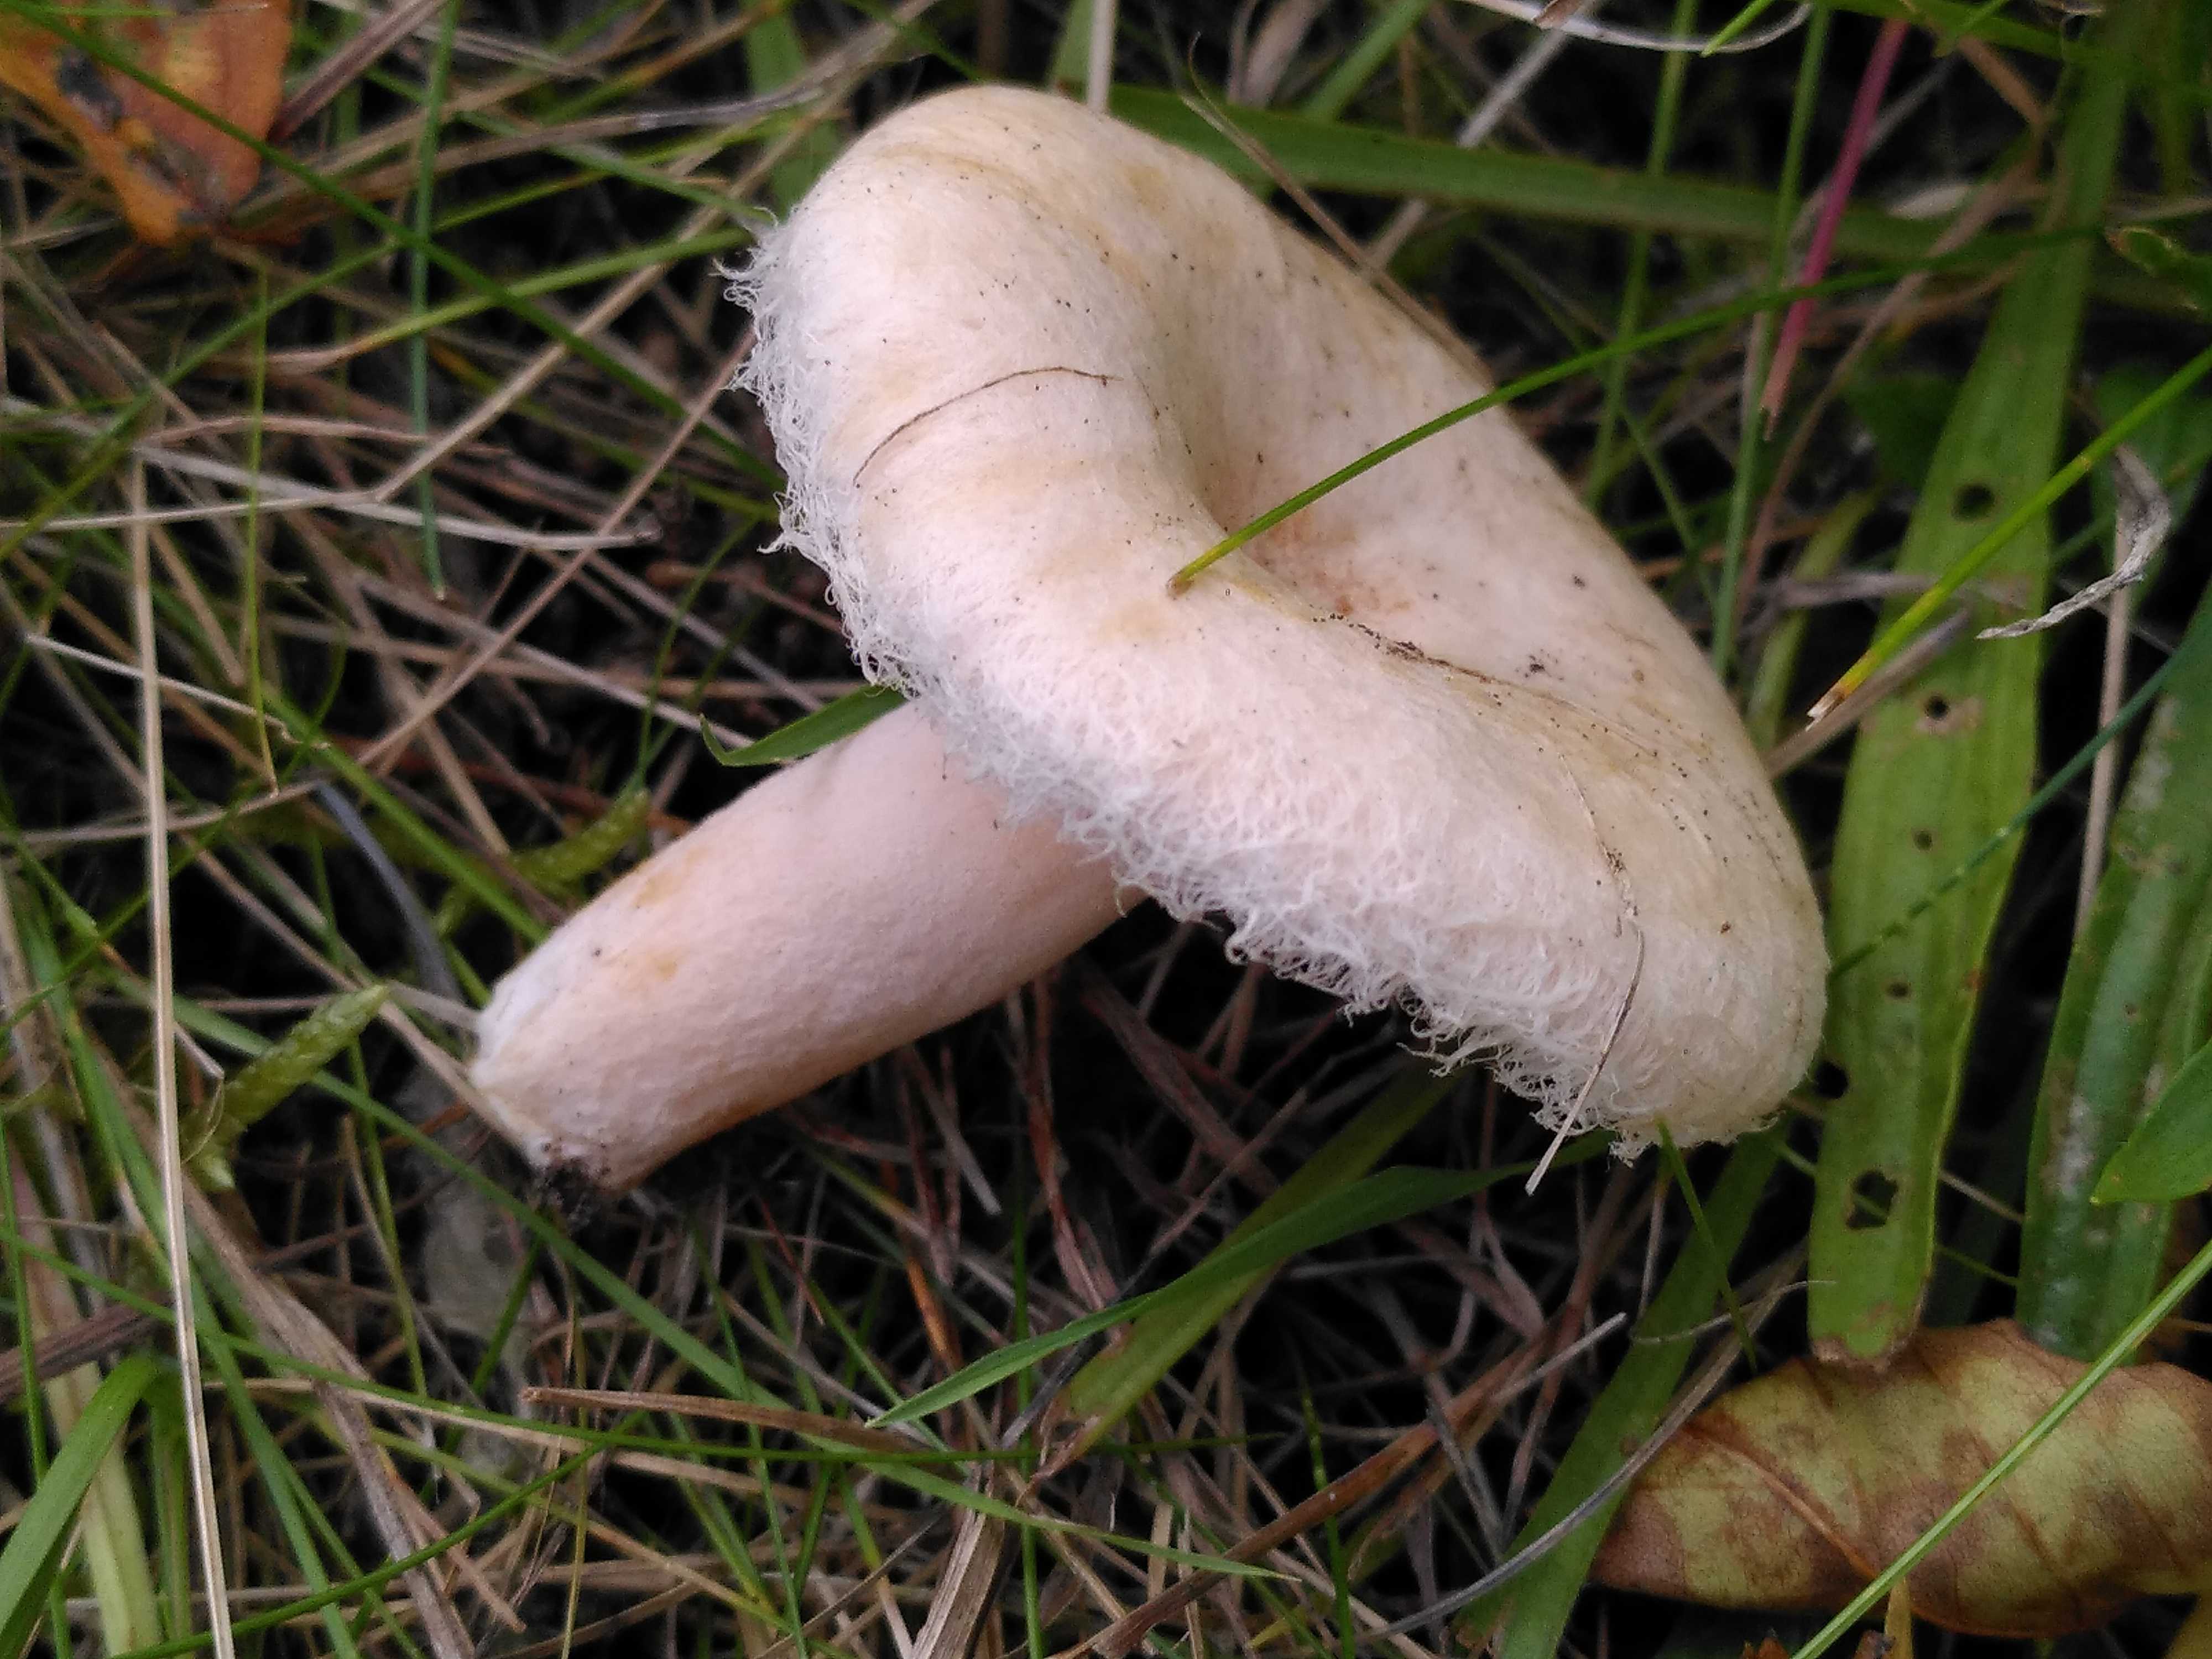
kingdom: Fungi
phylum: Basidiomycota
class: Agaricomycetes
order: Russulales
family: Russulaceae
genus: Lactarius
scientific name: Lactarius torminosus
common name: skægget mælkehat
